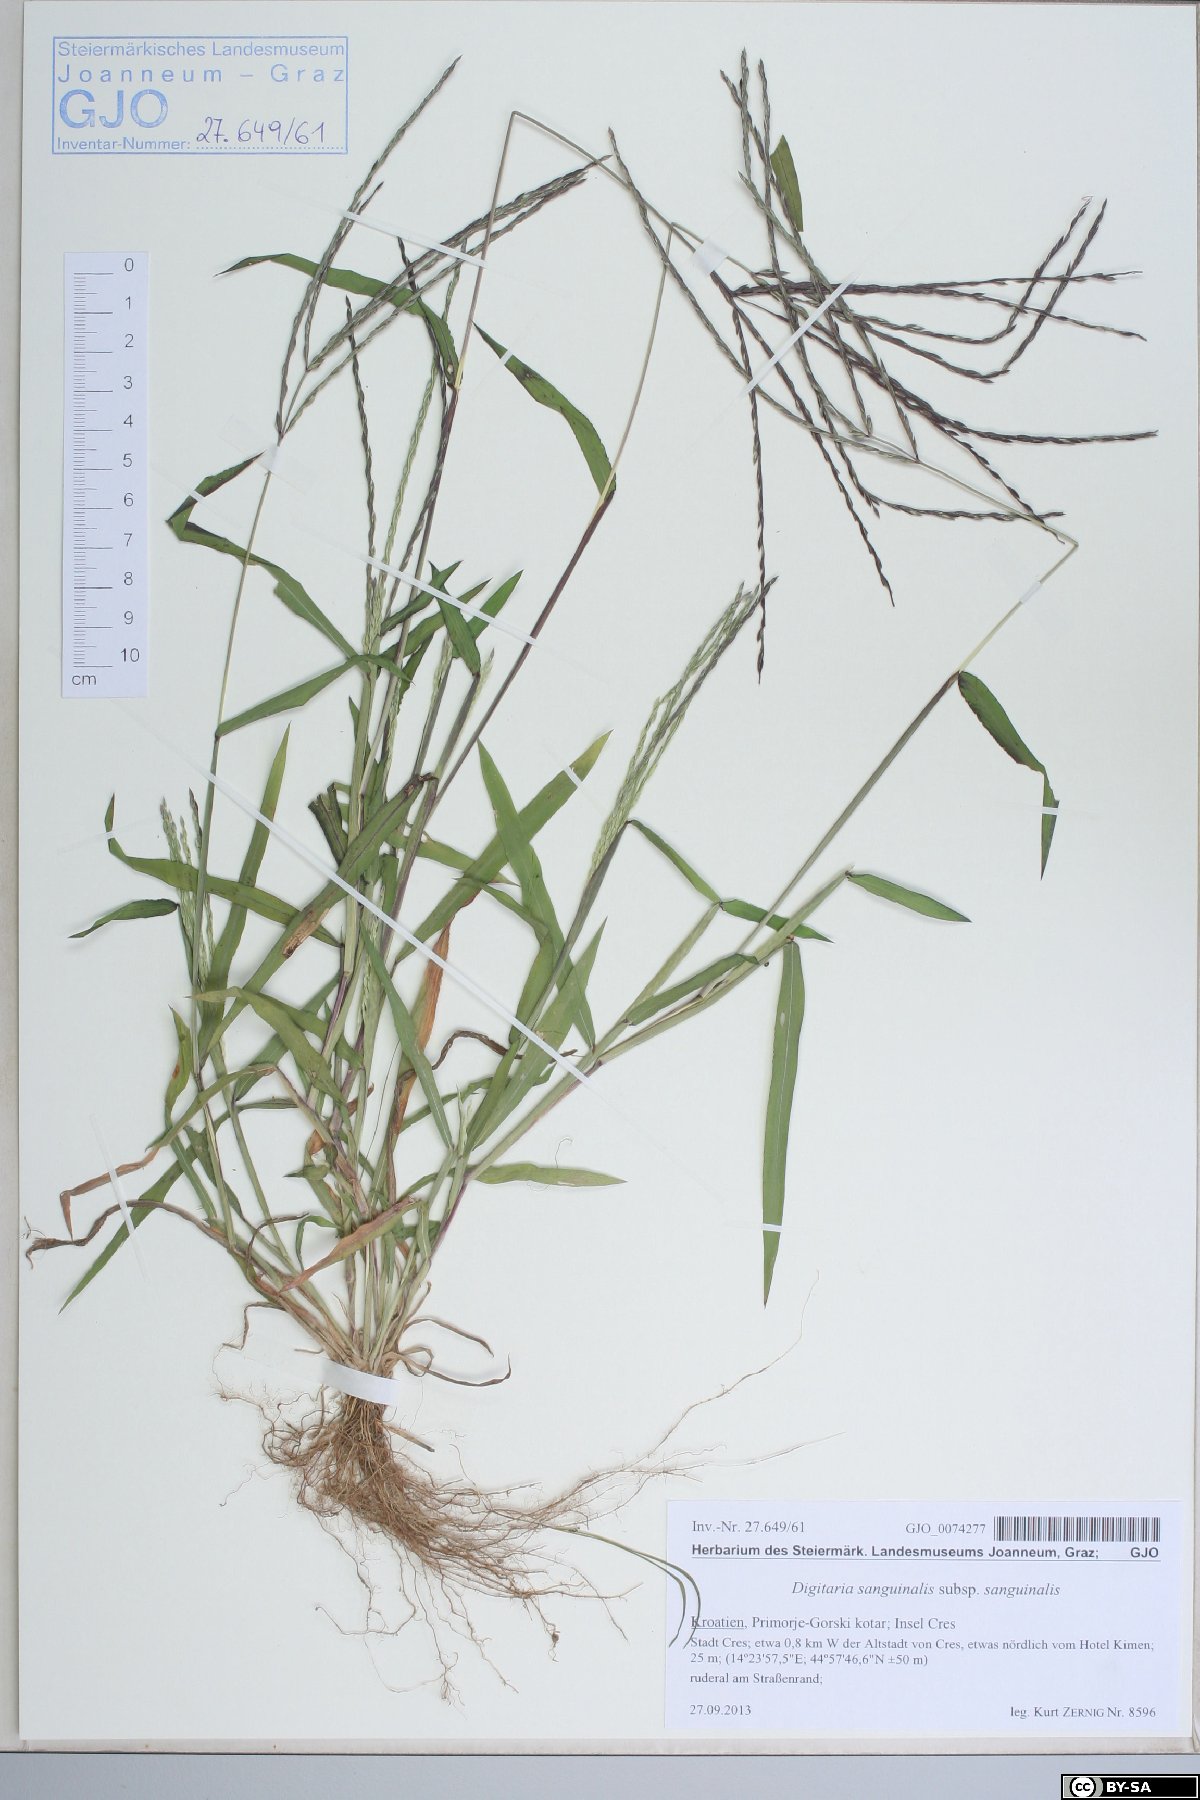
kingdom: Plantae
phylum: Tracheophyta
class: Liliopsida
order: Poales
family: Poaceae
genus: Digitaria
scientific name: Digitaria sanguinalis
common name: Hairy crabgrass
